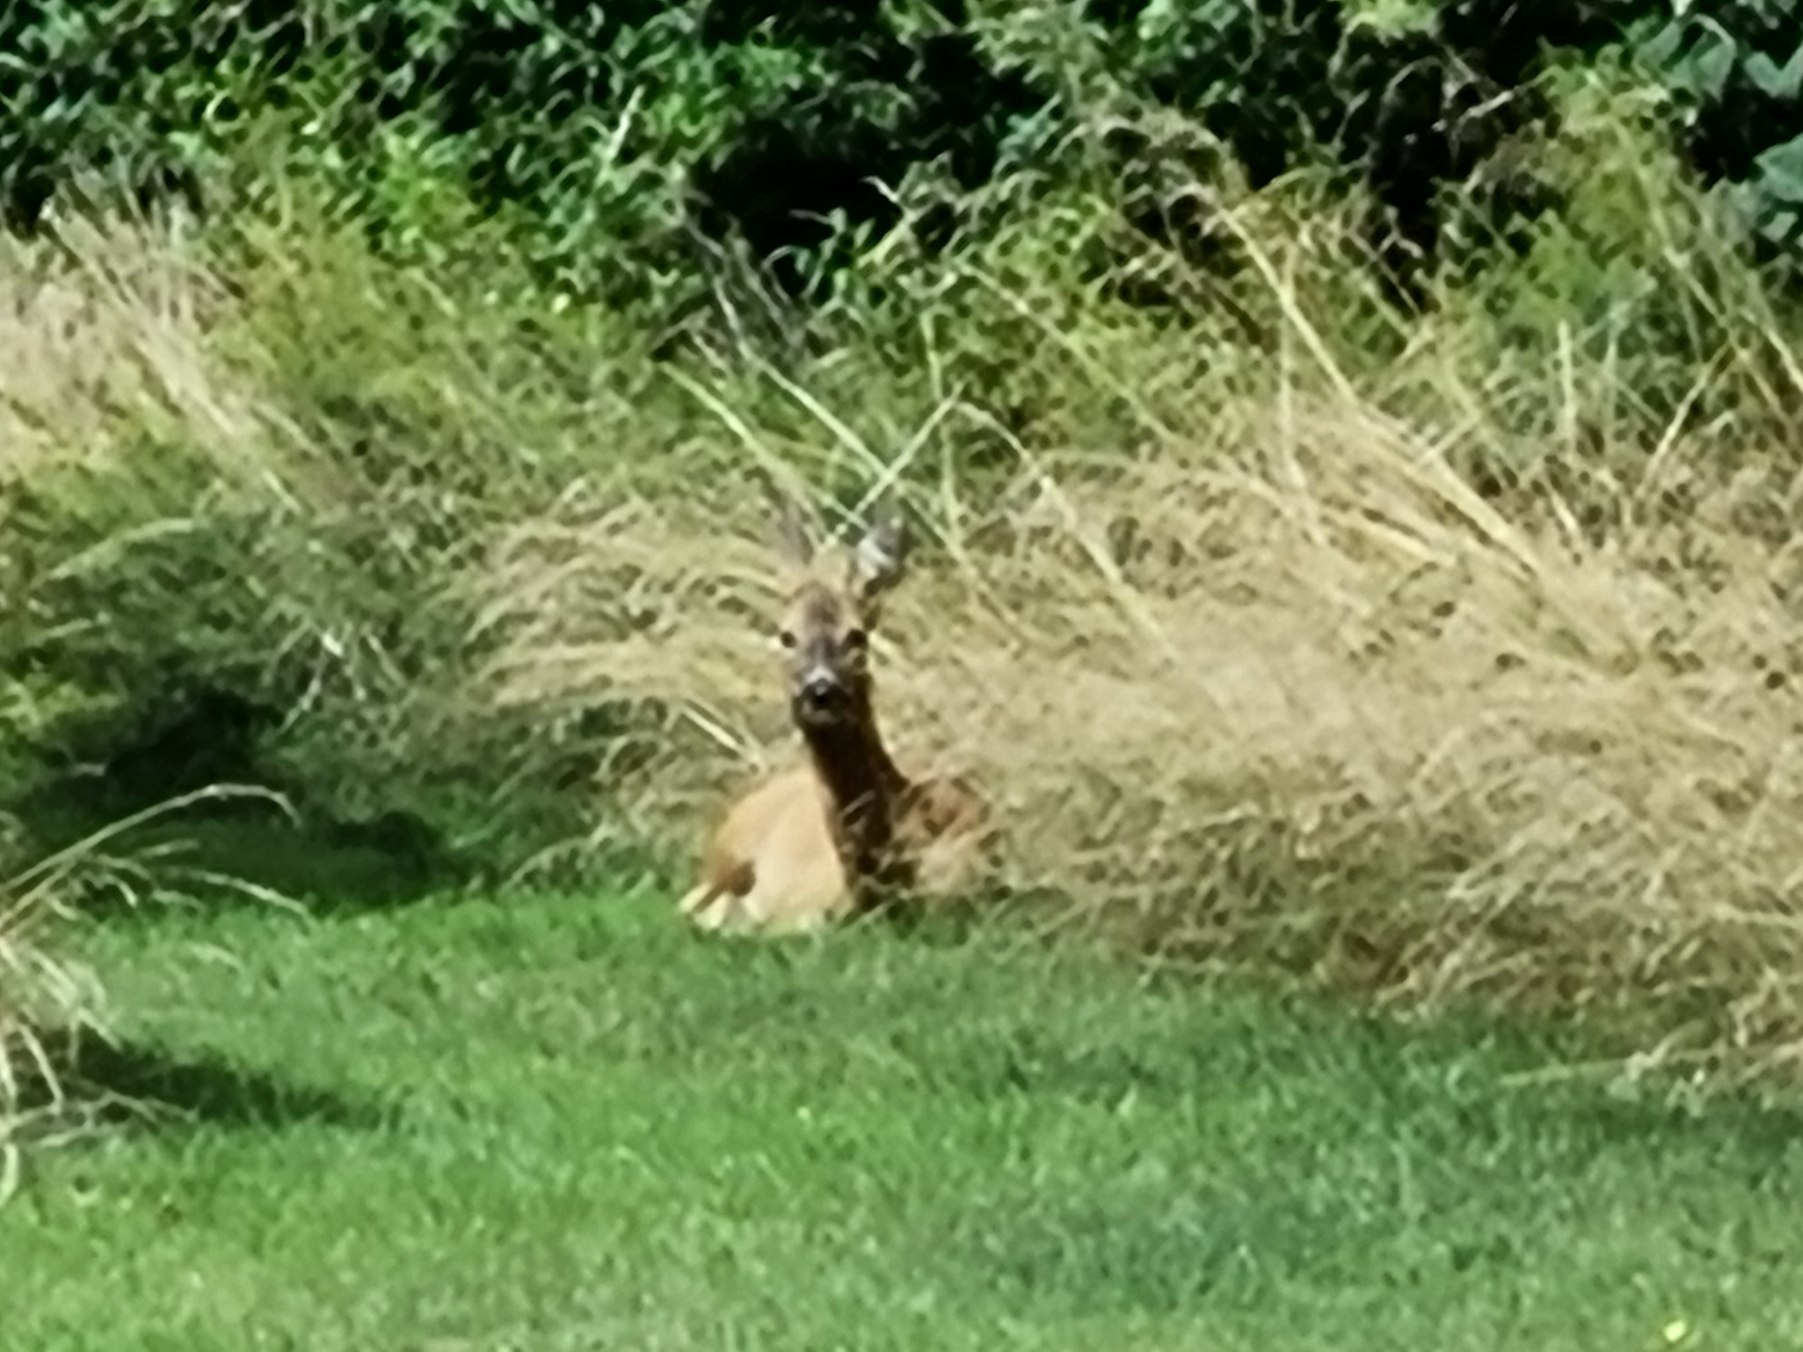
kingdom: Animalia
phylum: Chordata
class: Mammalia
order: Artiodactyla
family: Cervidae
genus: Capreolus
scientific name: Capreolus capreolus
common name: Rådyr
